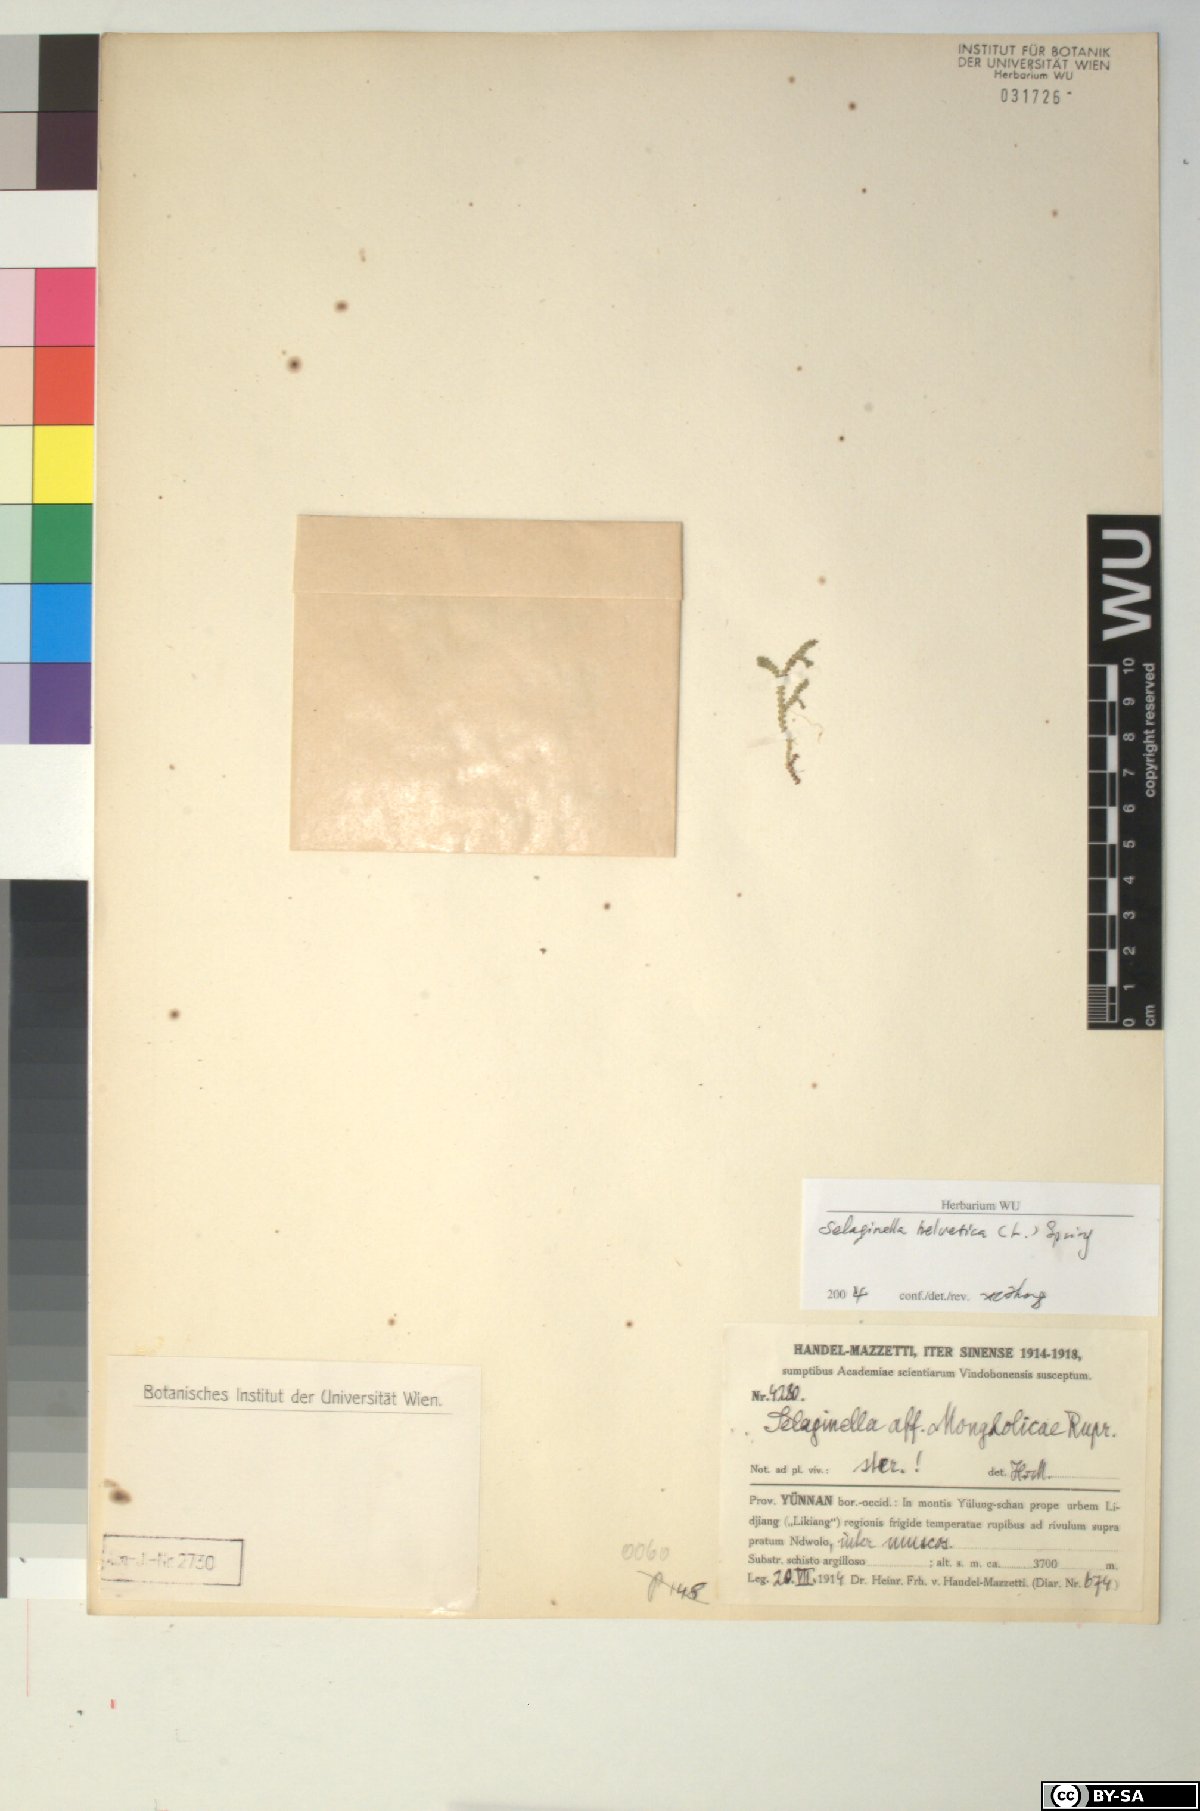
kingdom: Plantae
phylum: Tracheophyta
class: Lycopodiopsida
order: Selaginellales
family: Selaginellaceae
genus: Selaginella
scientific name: Selaginella helvetica
